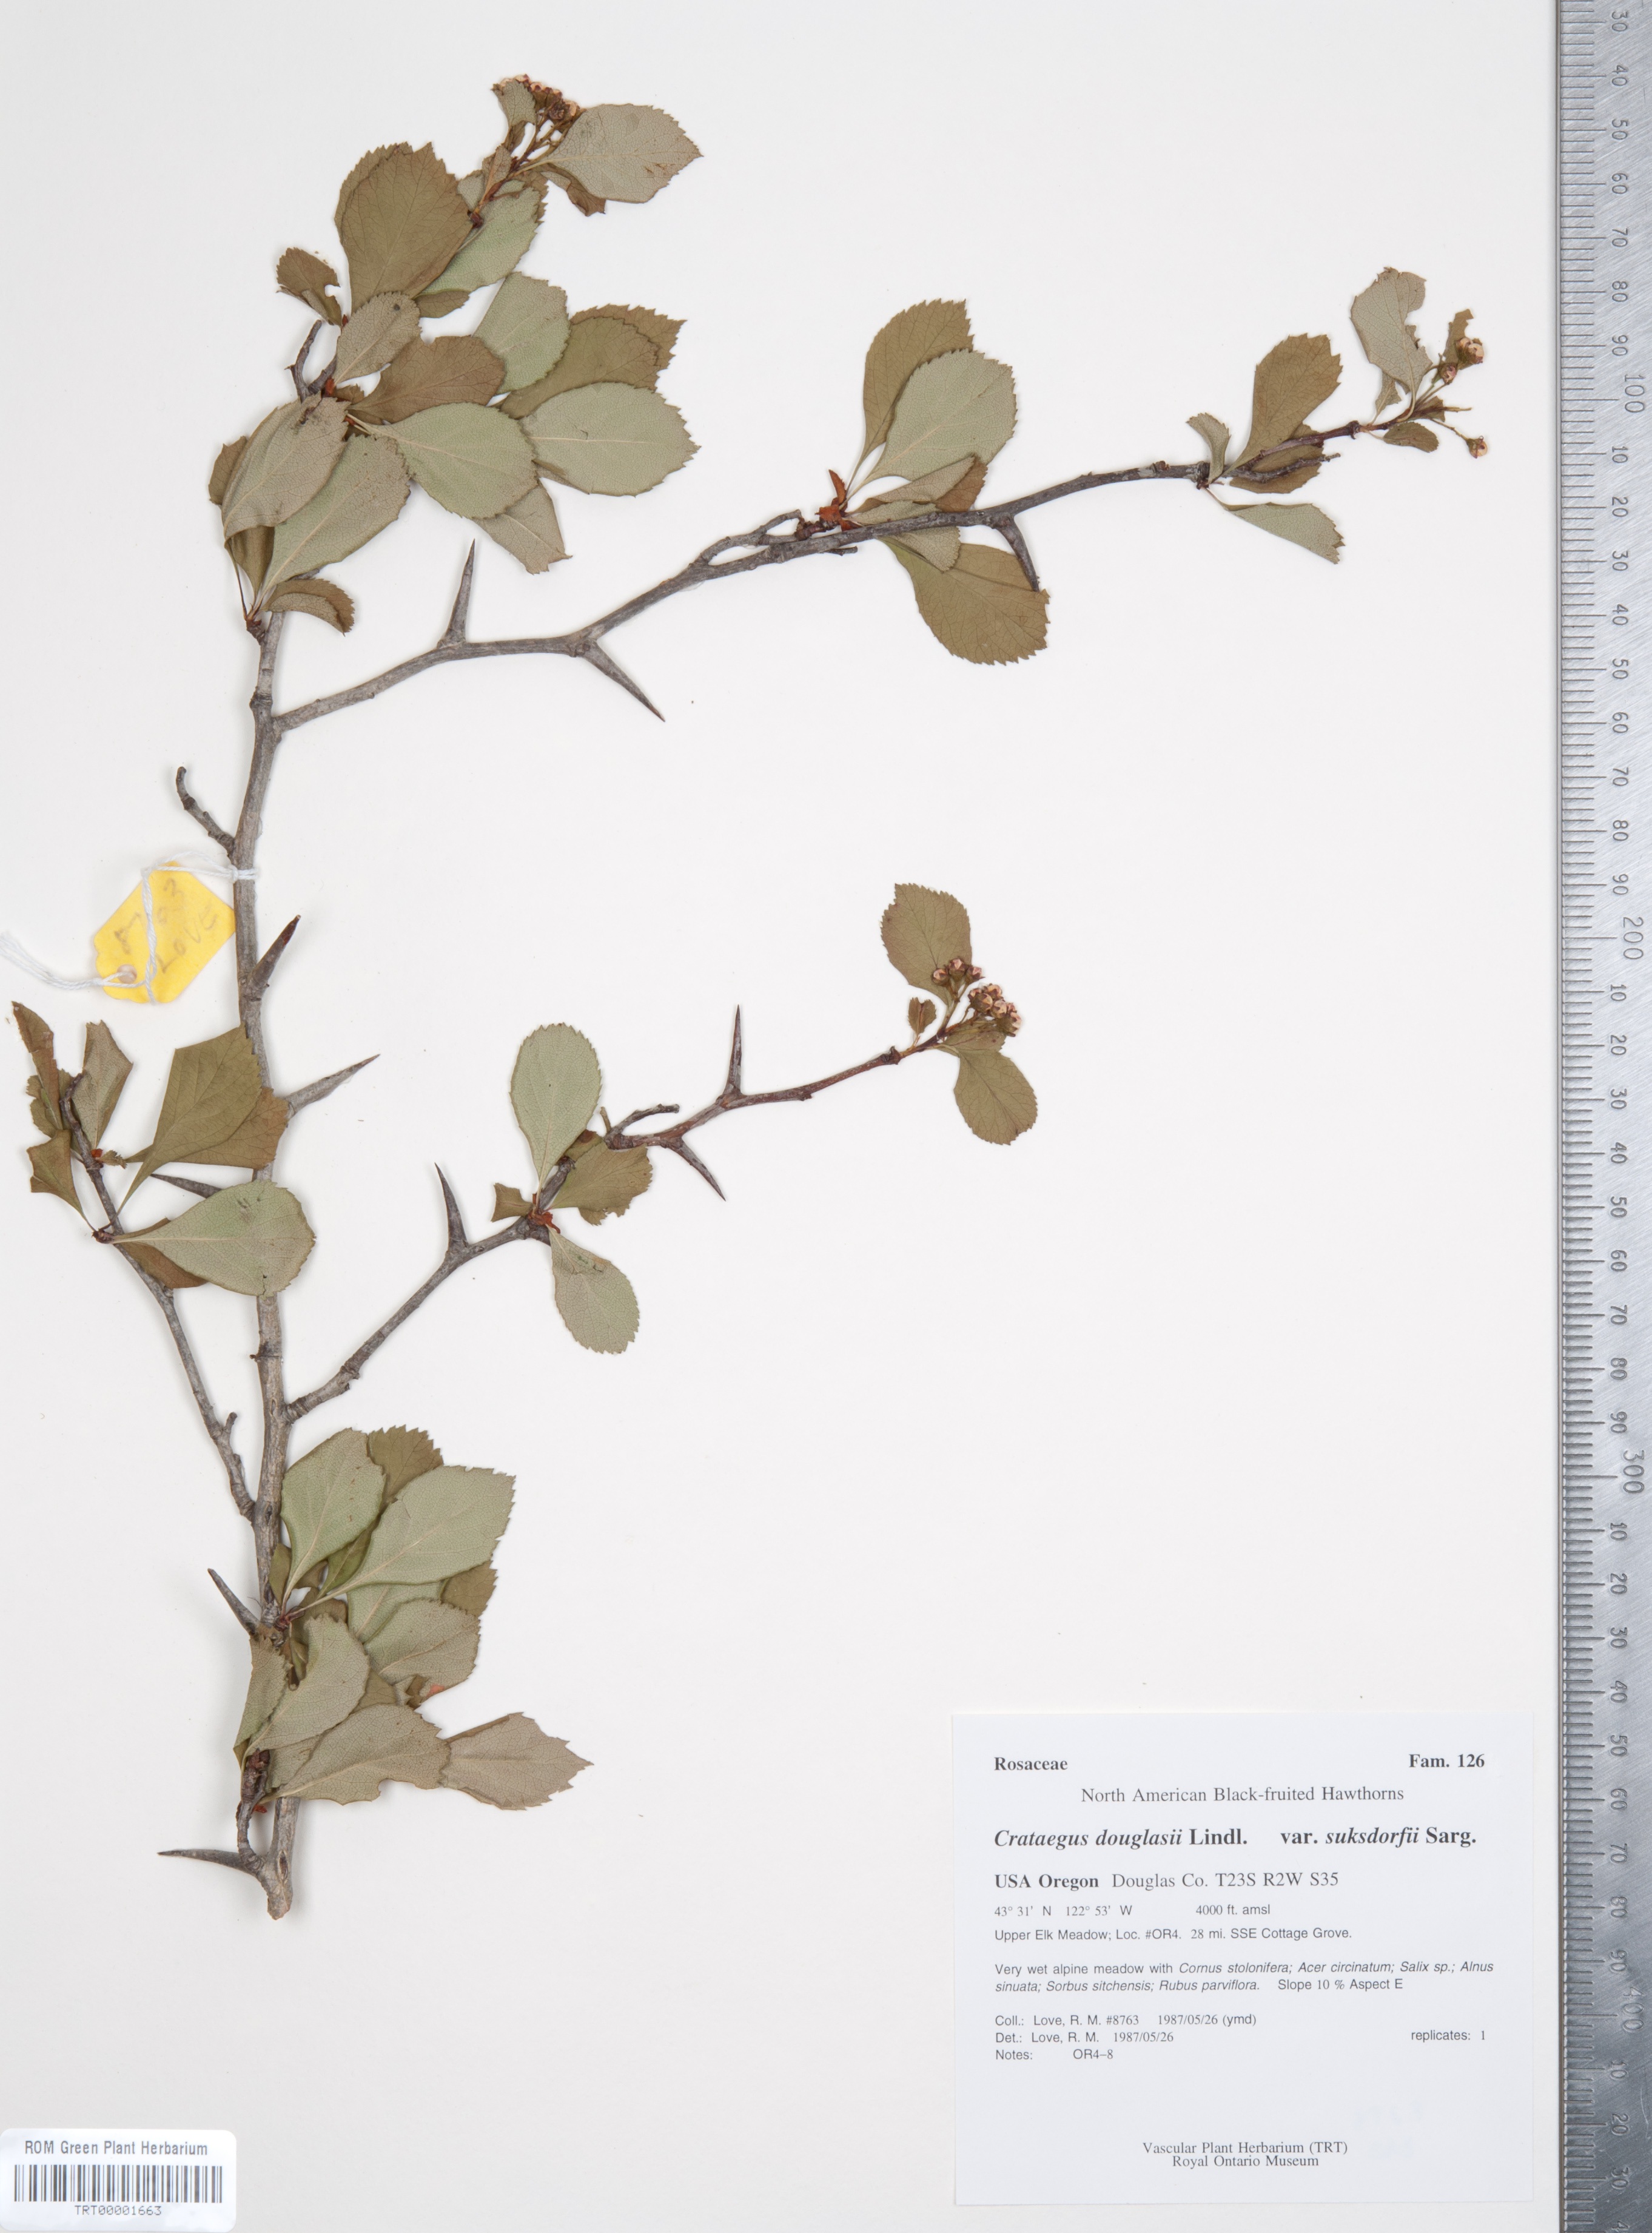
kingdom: Plantae
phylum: Tracheophyta
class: Magnoliopsida
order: Rosales
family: Rosaceae
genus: Crataegus
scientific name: Crataegus gaylussacia
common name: Huckleberry hawthorn
